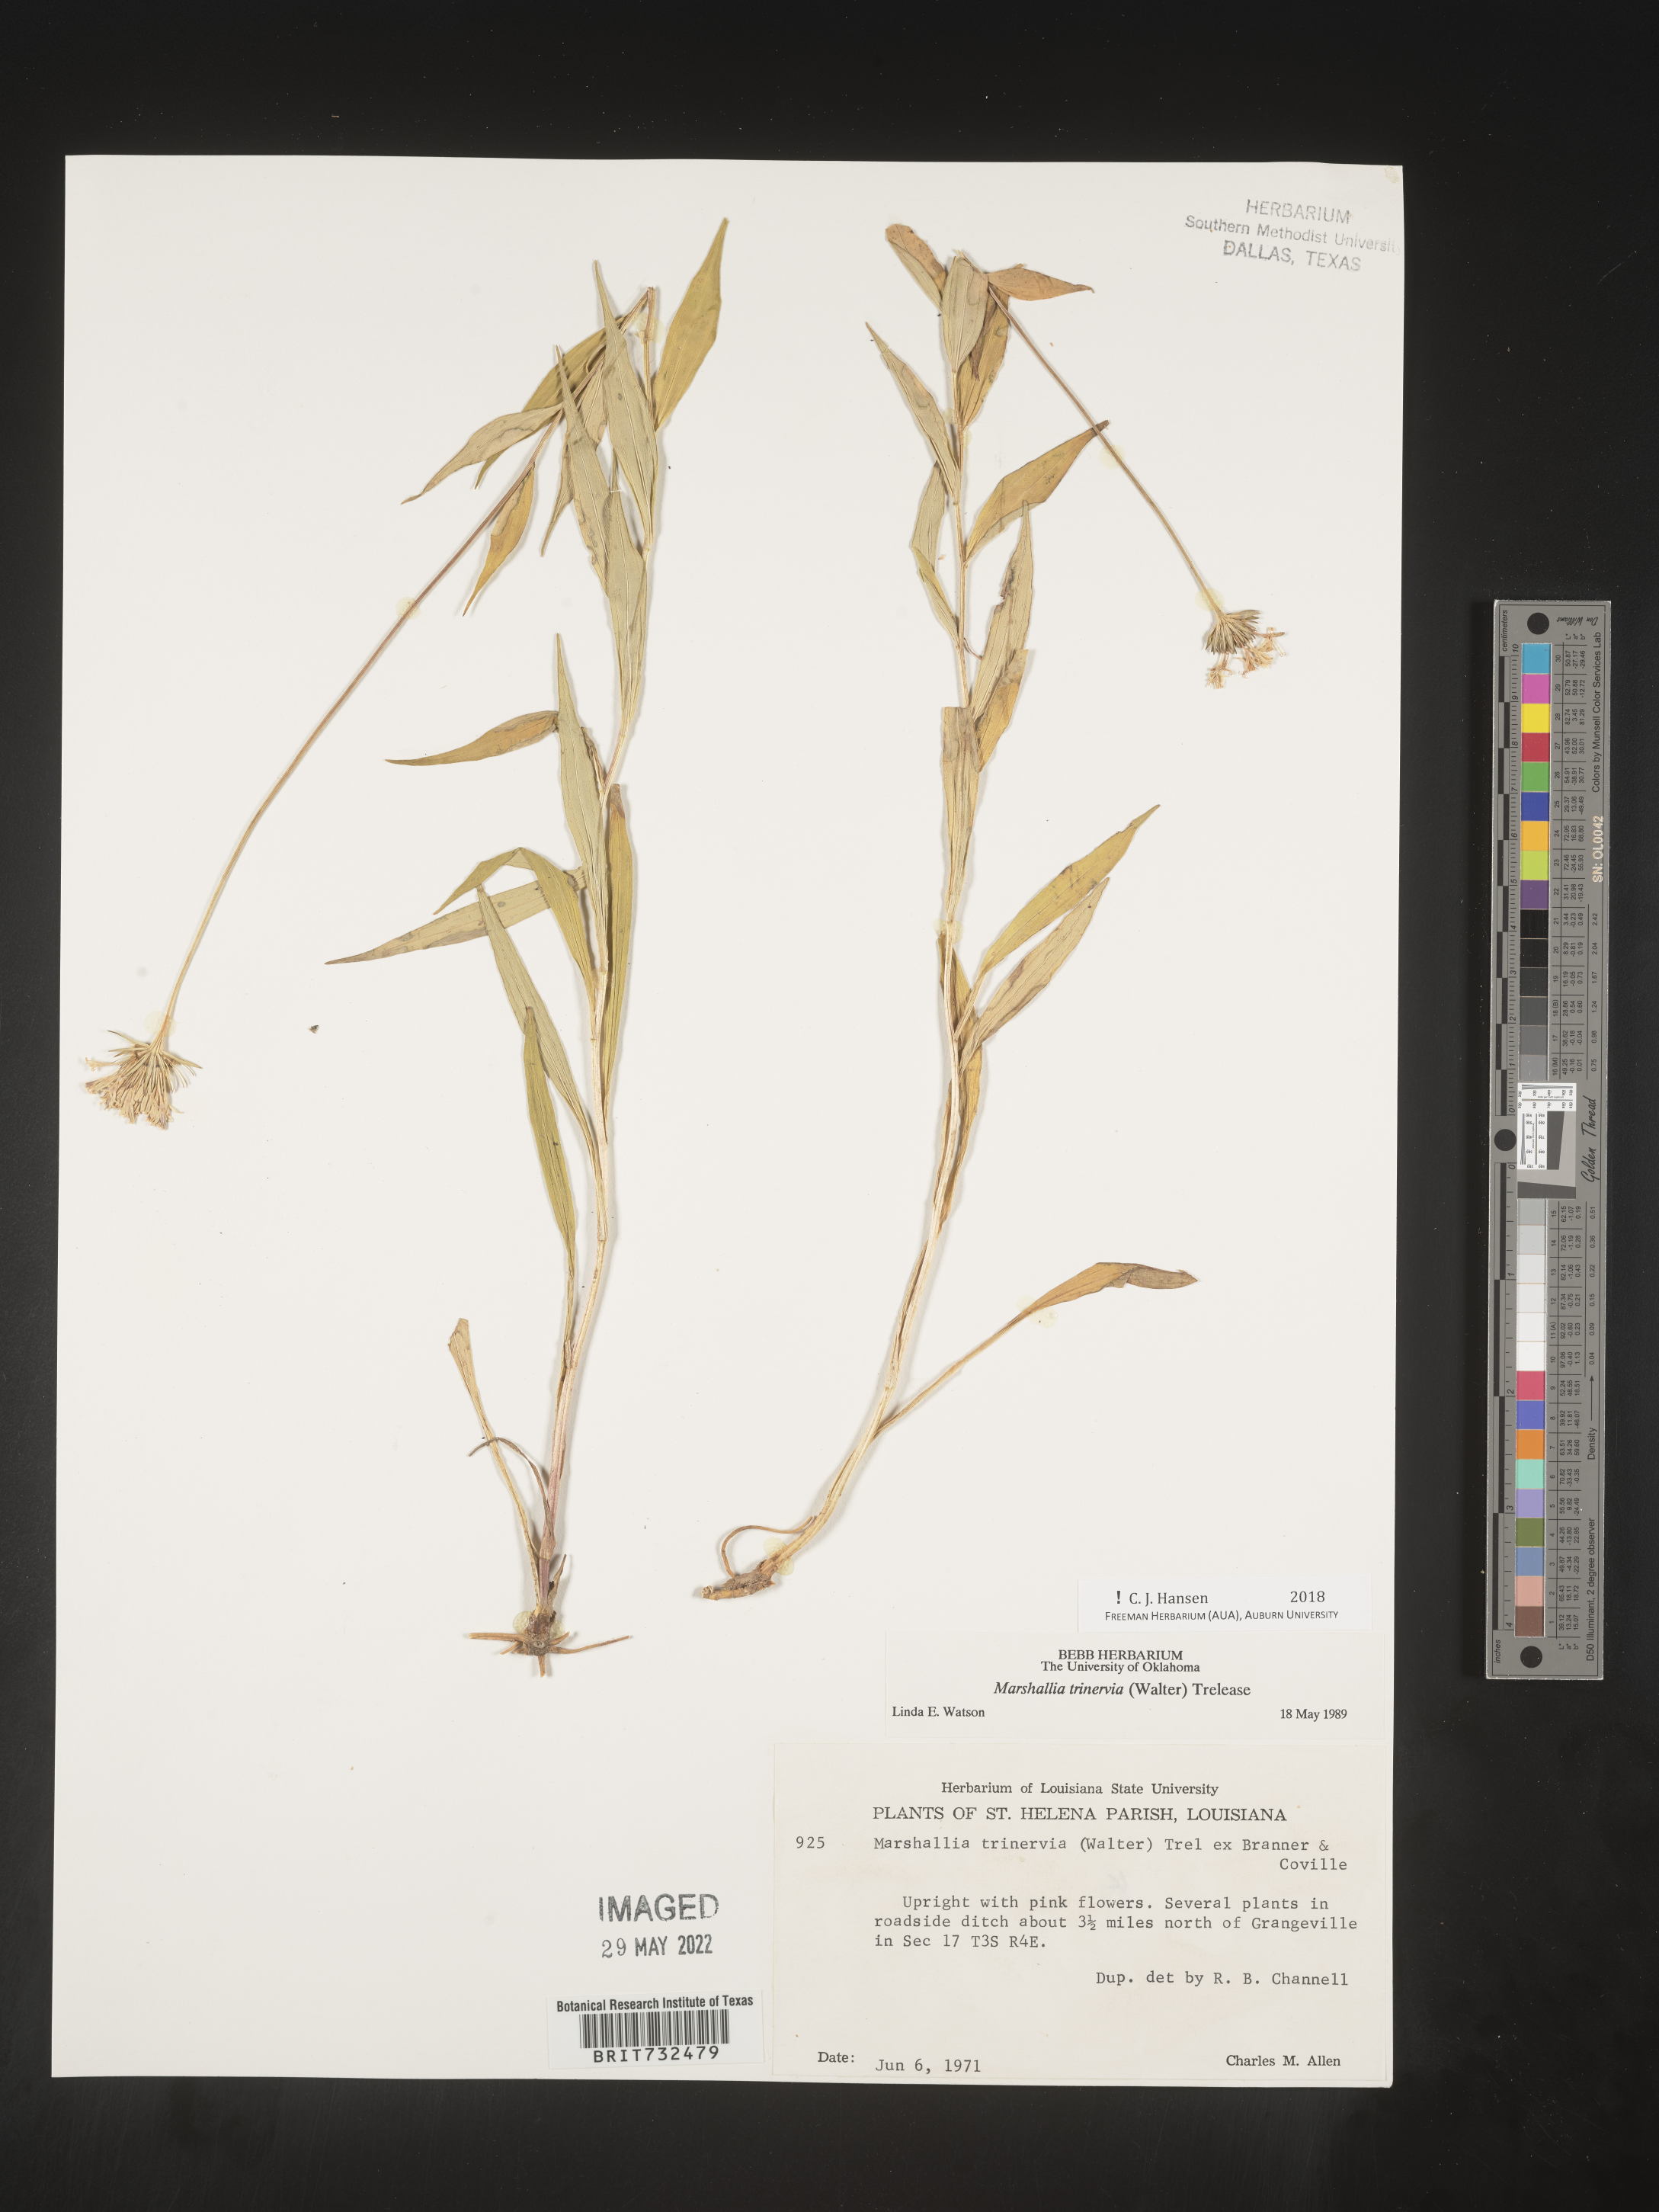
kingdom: Plantae
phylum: Tracheophyta
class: Magnoliopsida
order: Asterales
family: Asteraceae
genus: Marshallia
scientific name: Marshallia trinervia
